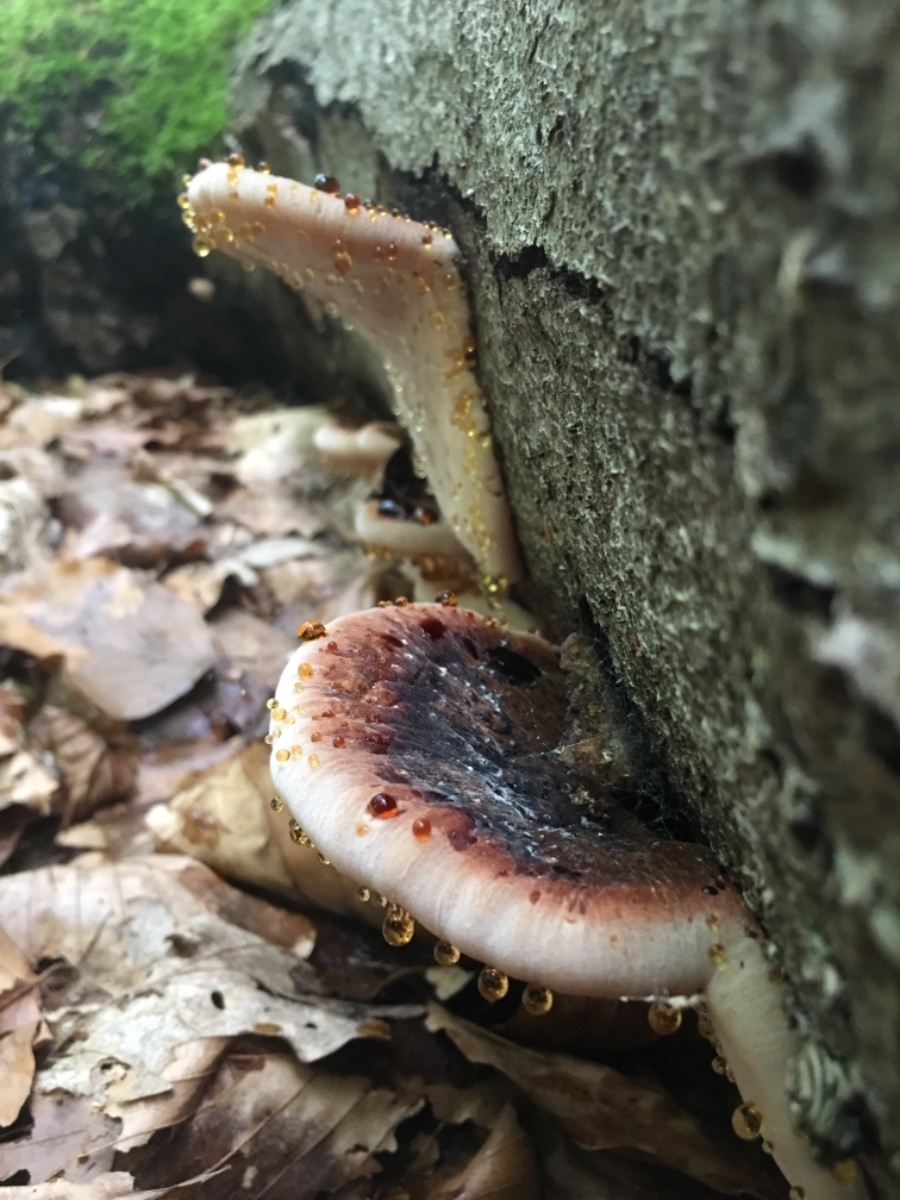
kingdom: Fungi
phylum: Basidiomycota
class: Agaricomycetes
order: Polyporales
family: Ischnodermataceae
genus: Ischnoderma
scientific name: Ischnoderma resinosum
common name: løv-tjæreporesvamp
